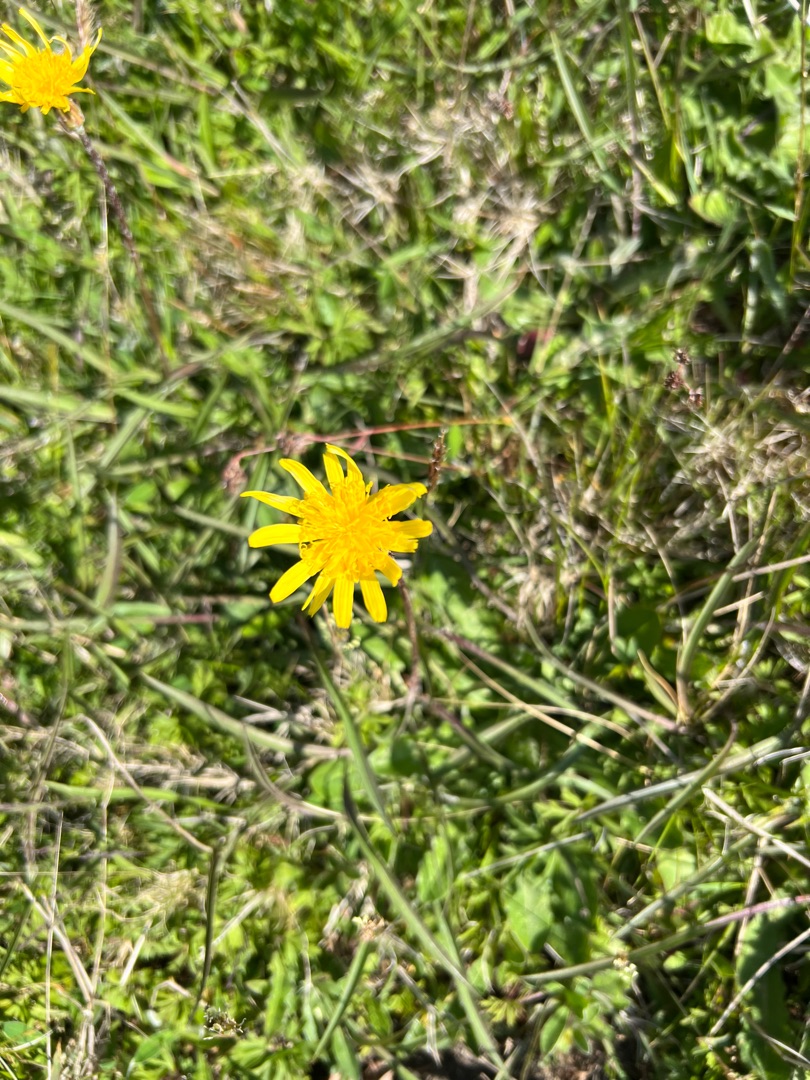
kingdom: Plantae
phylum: Tracheophyta
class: Magnoliopsida
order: Asterales
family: Asteraceae
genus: Scorzonera
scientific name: Scorzonera humilis
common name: Lav skorsoner
